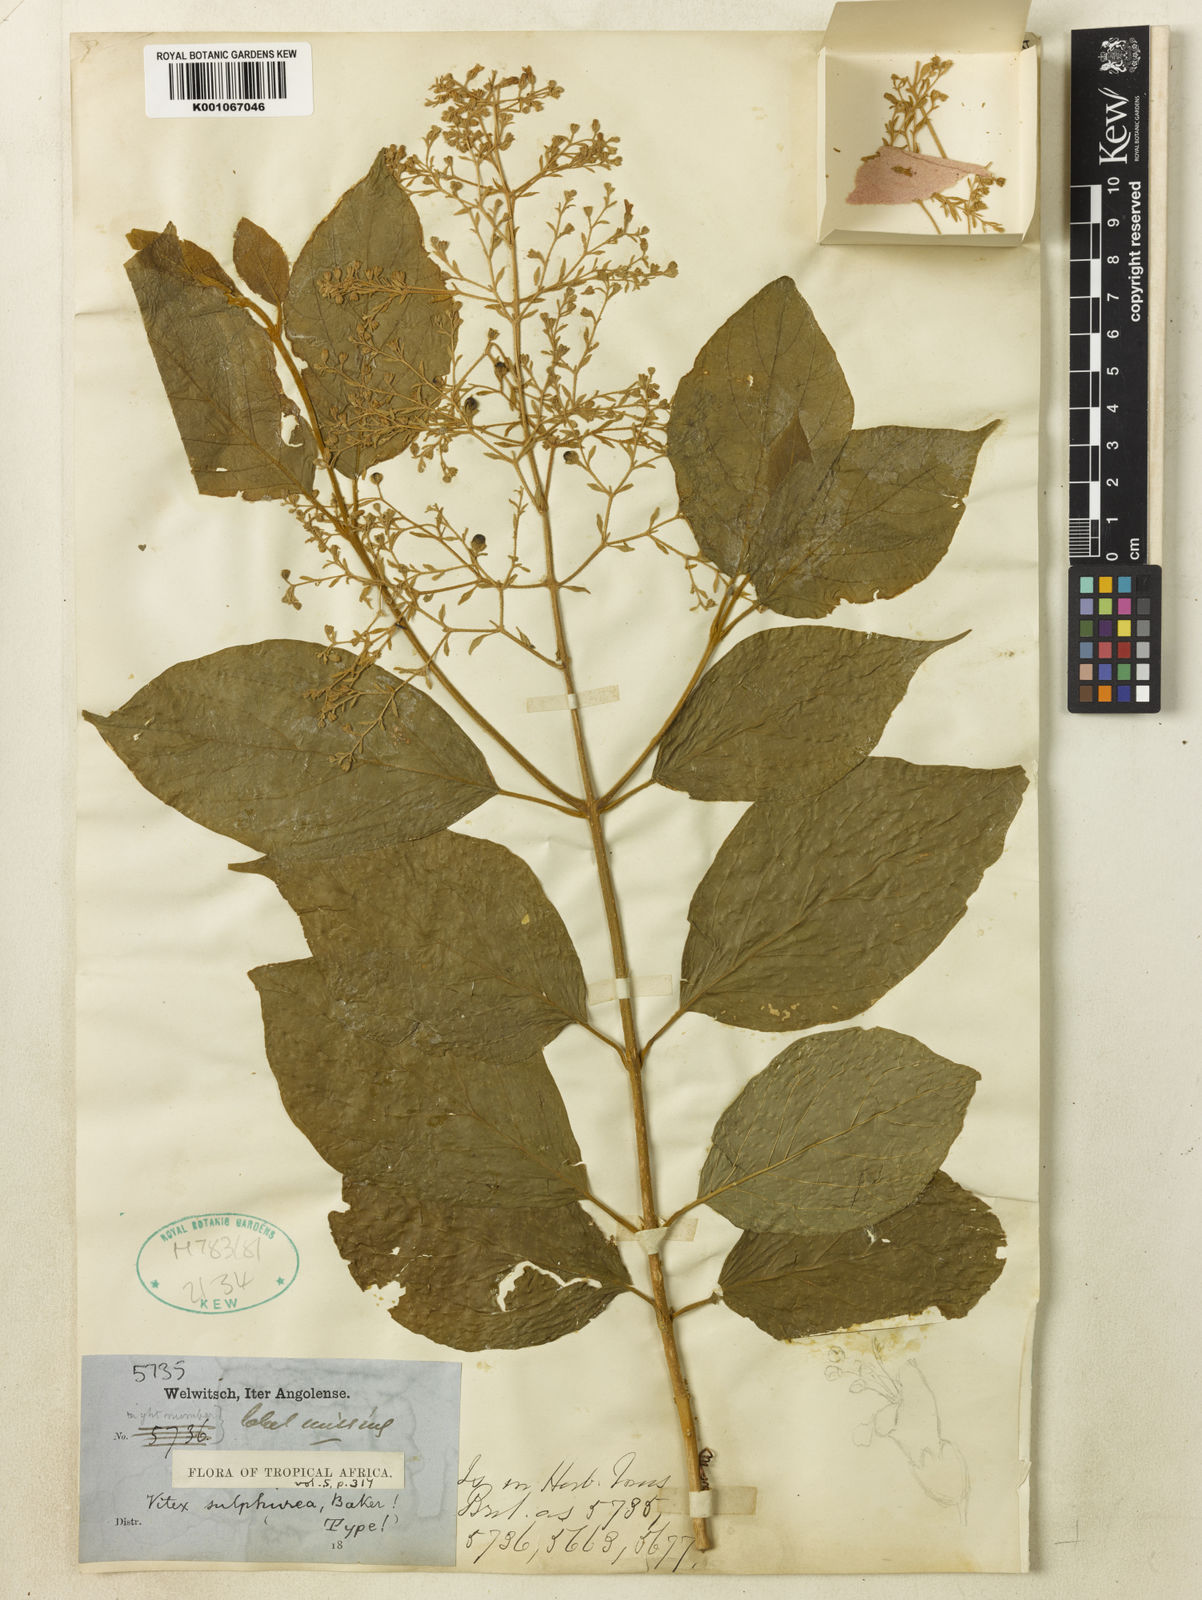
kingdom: Plantae
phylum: Tracheophyta
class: Magnoliopsida
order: Lamiales
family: Lamiaceae
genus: Premna
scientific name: Premna
